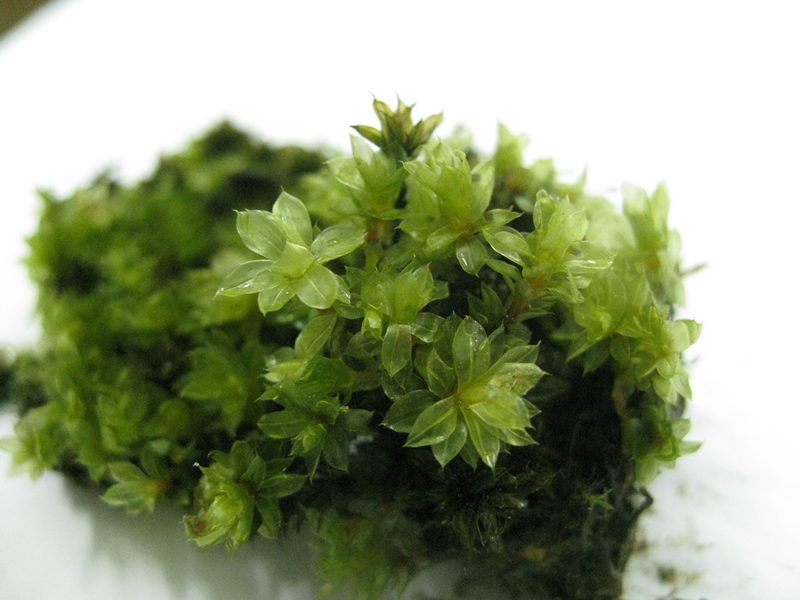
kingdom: Plantae
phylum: Bryophyta
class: Bryopsida
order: Bryales
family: Bryaceae
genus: Bryum
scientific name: Bryum russulum
